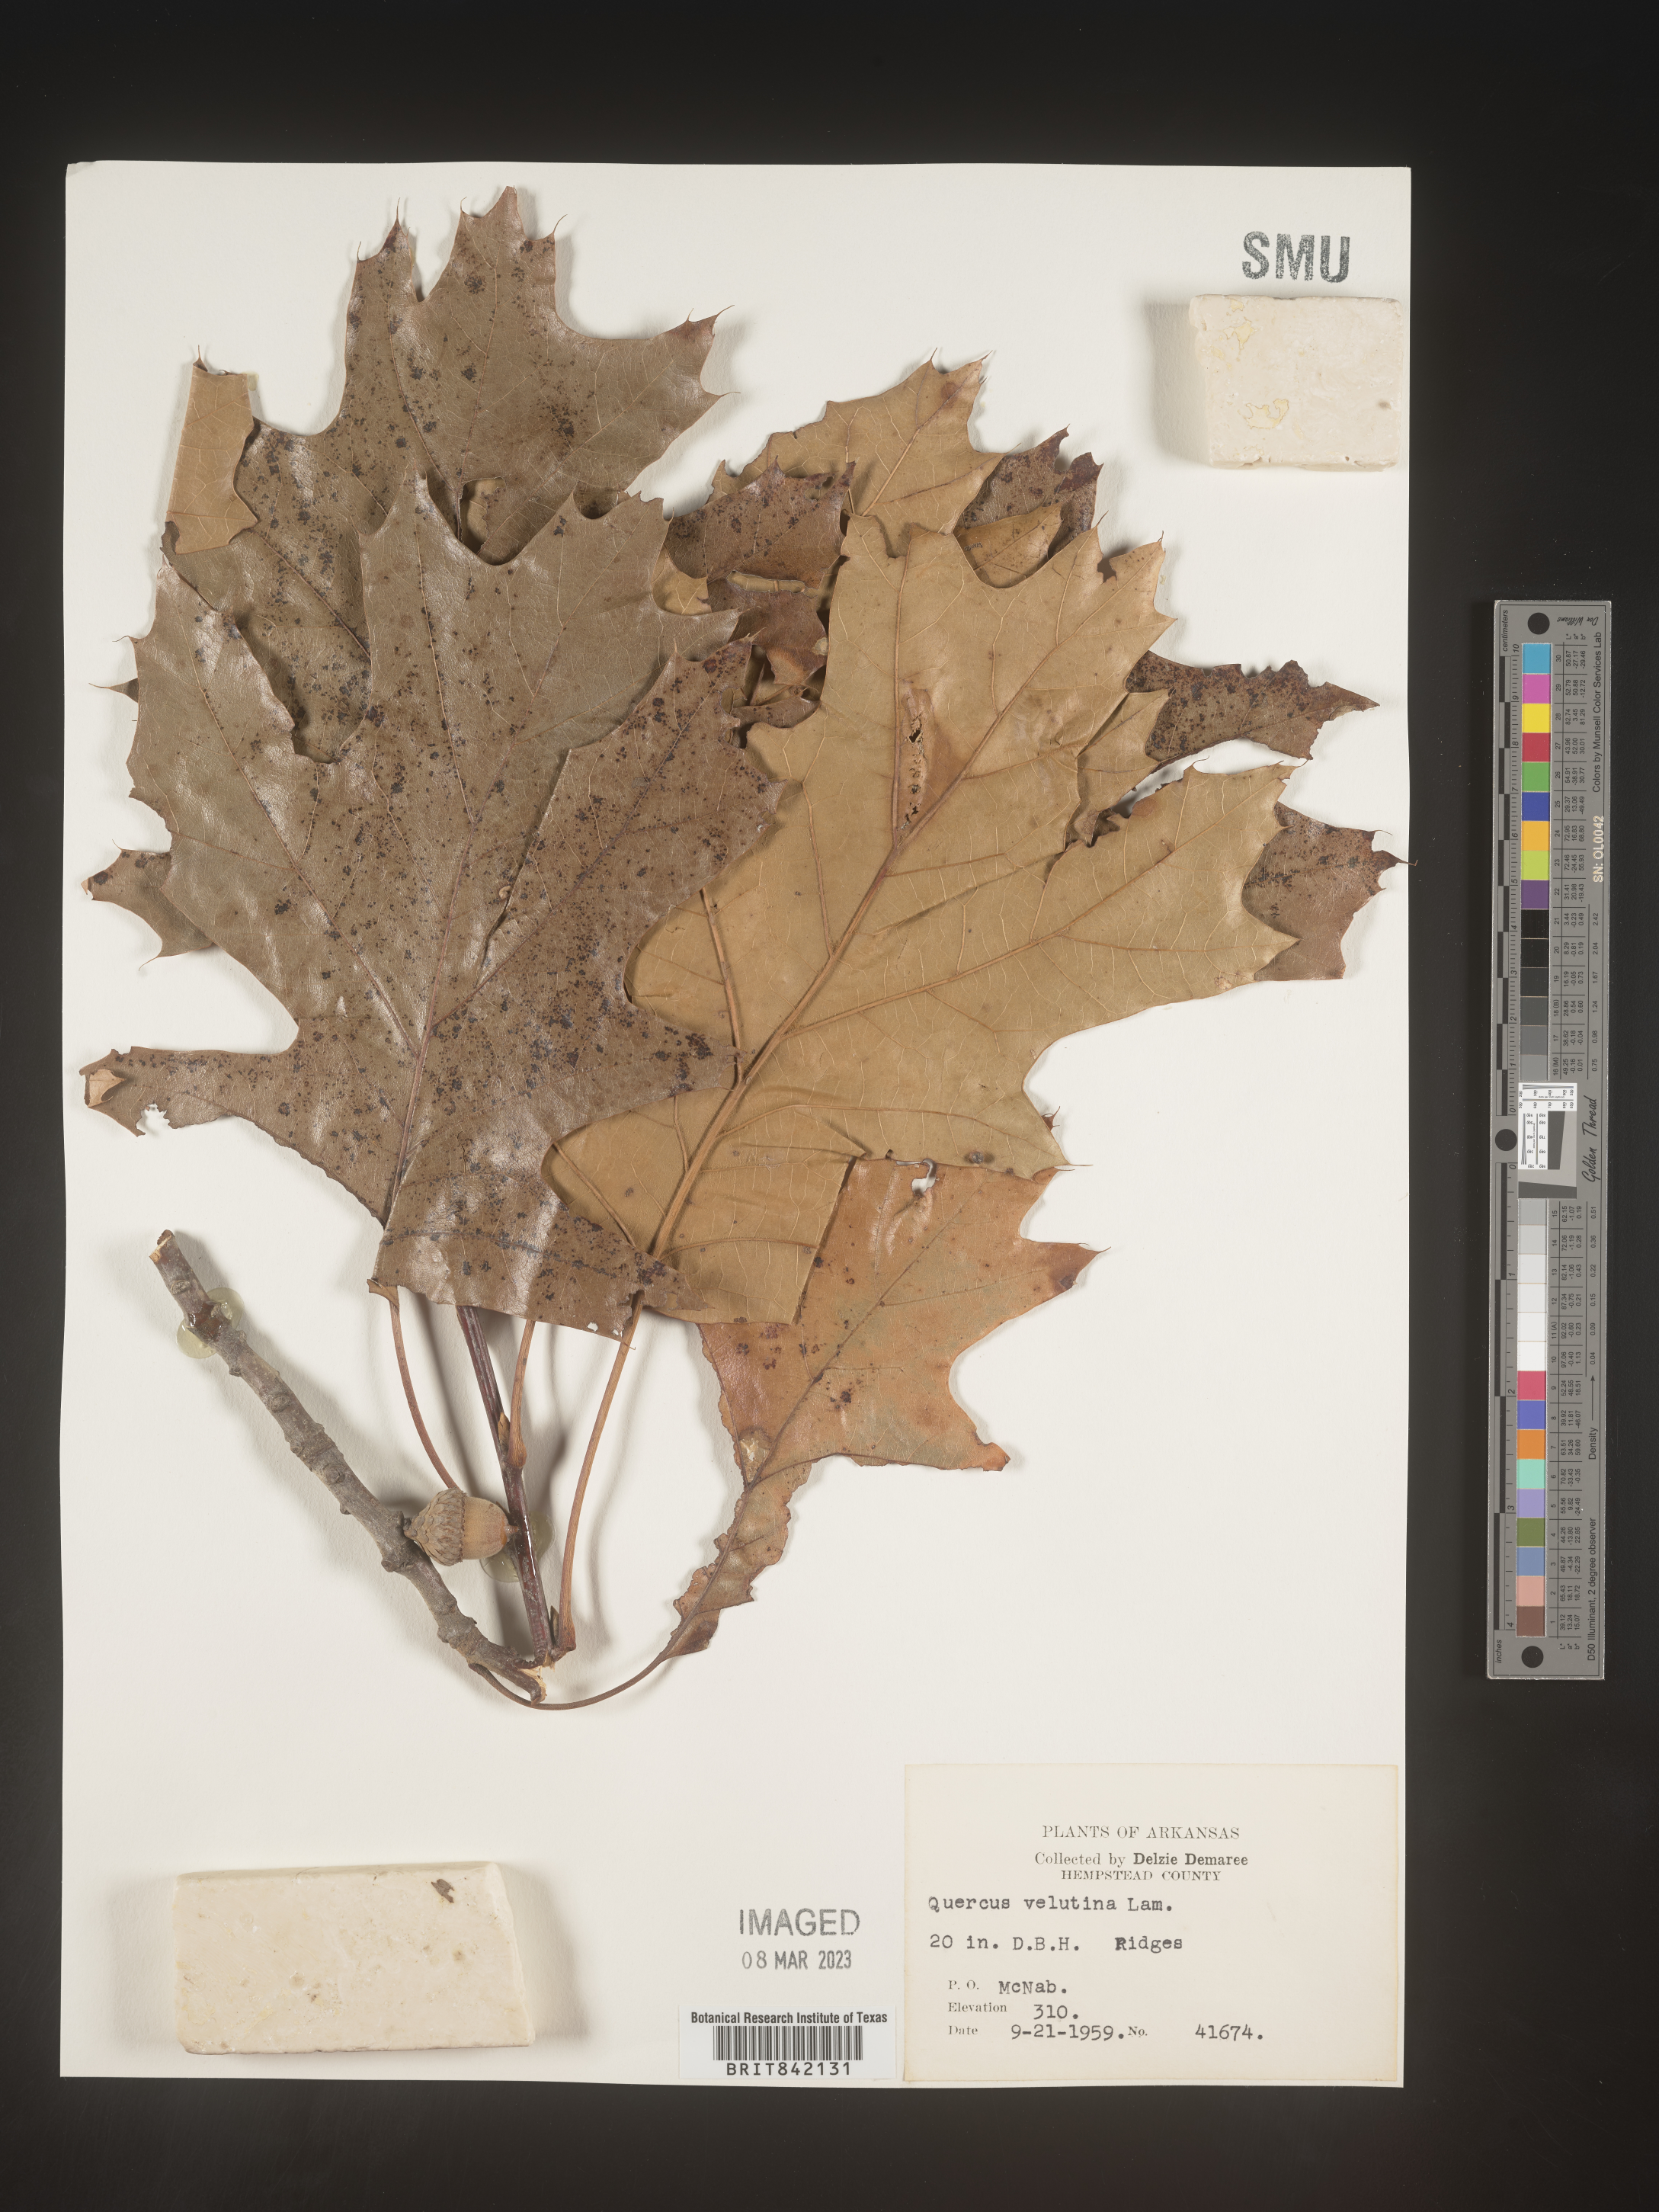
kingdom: Plantae
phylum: Tracheophyta
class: Magnoliopsida
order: Fagales
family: Fagaceae
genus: Quercus
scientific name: Quercus velutina
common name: Black oak
